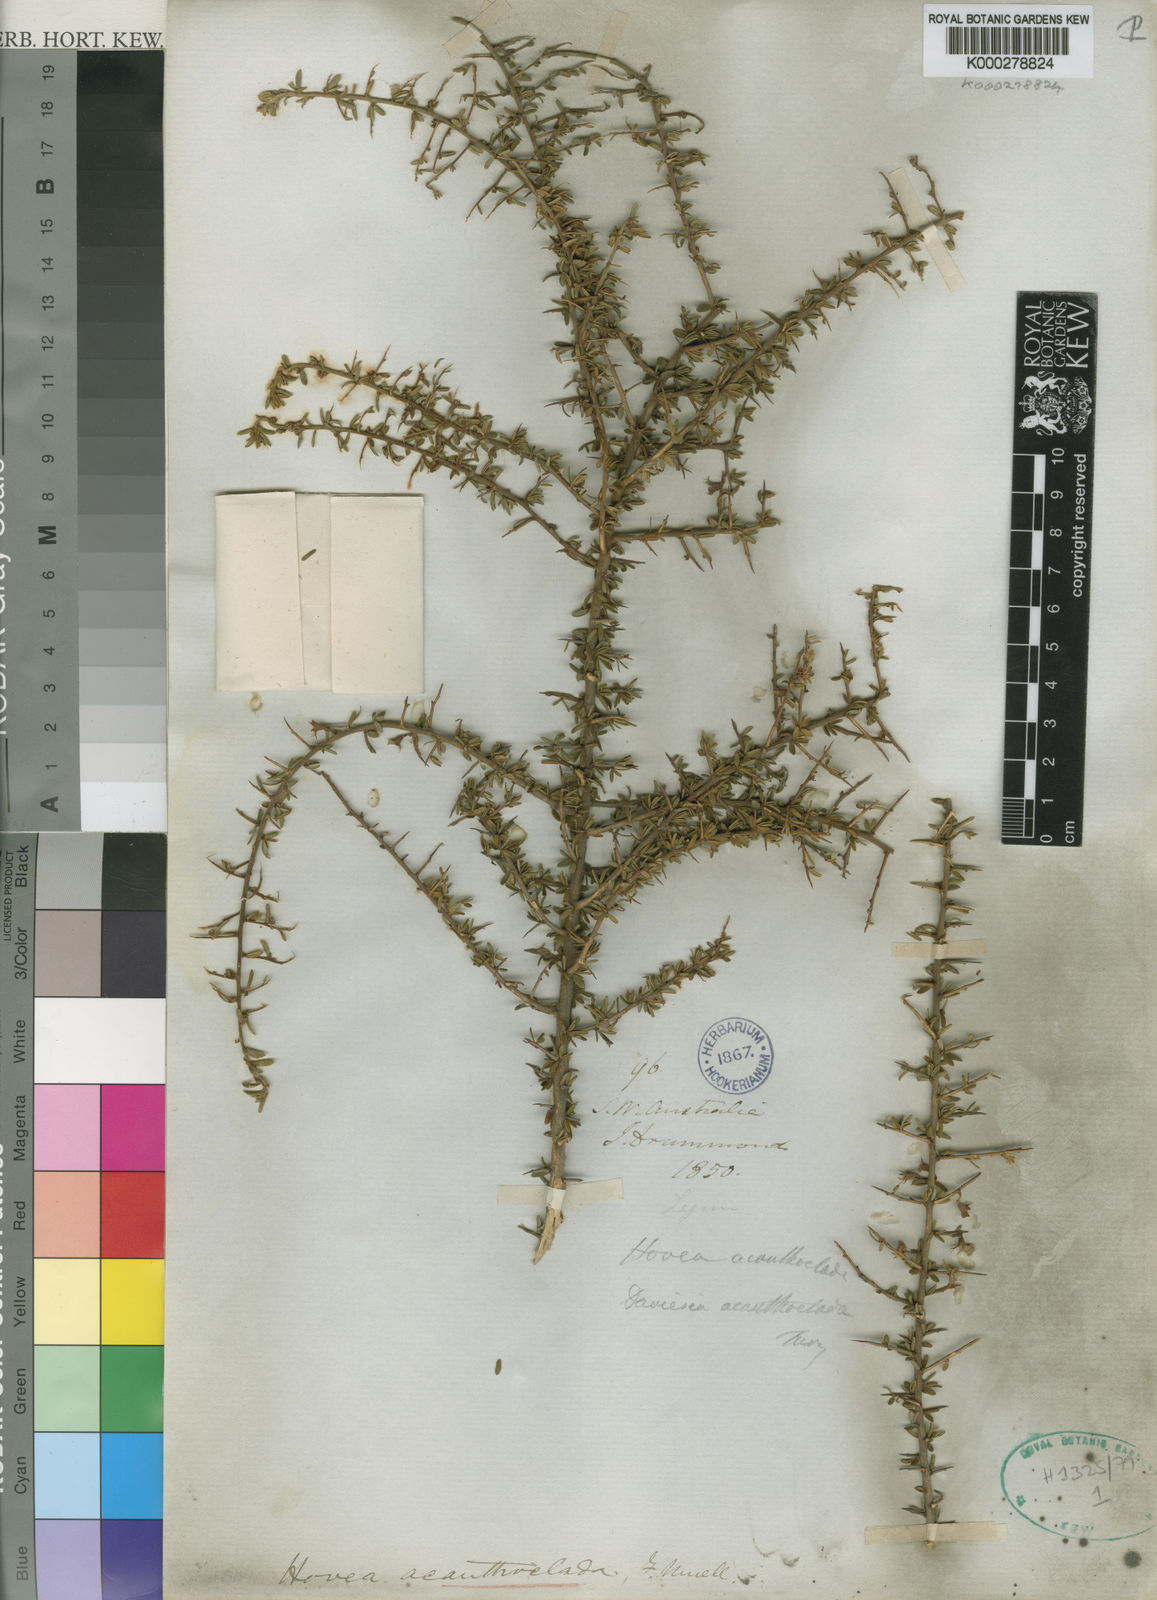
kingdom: Plantae
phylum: Tracheophyta
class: Magnoliopsida
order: Fabales
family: Fabaceae
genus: Hovea
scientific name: Hovea acanthoclada
